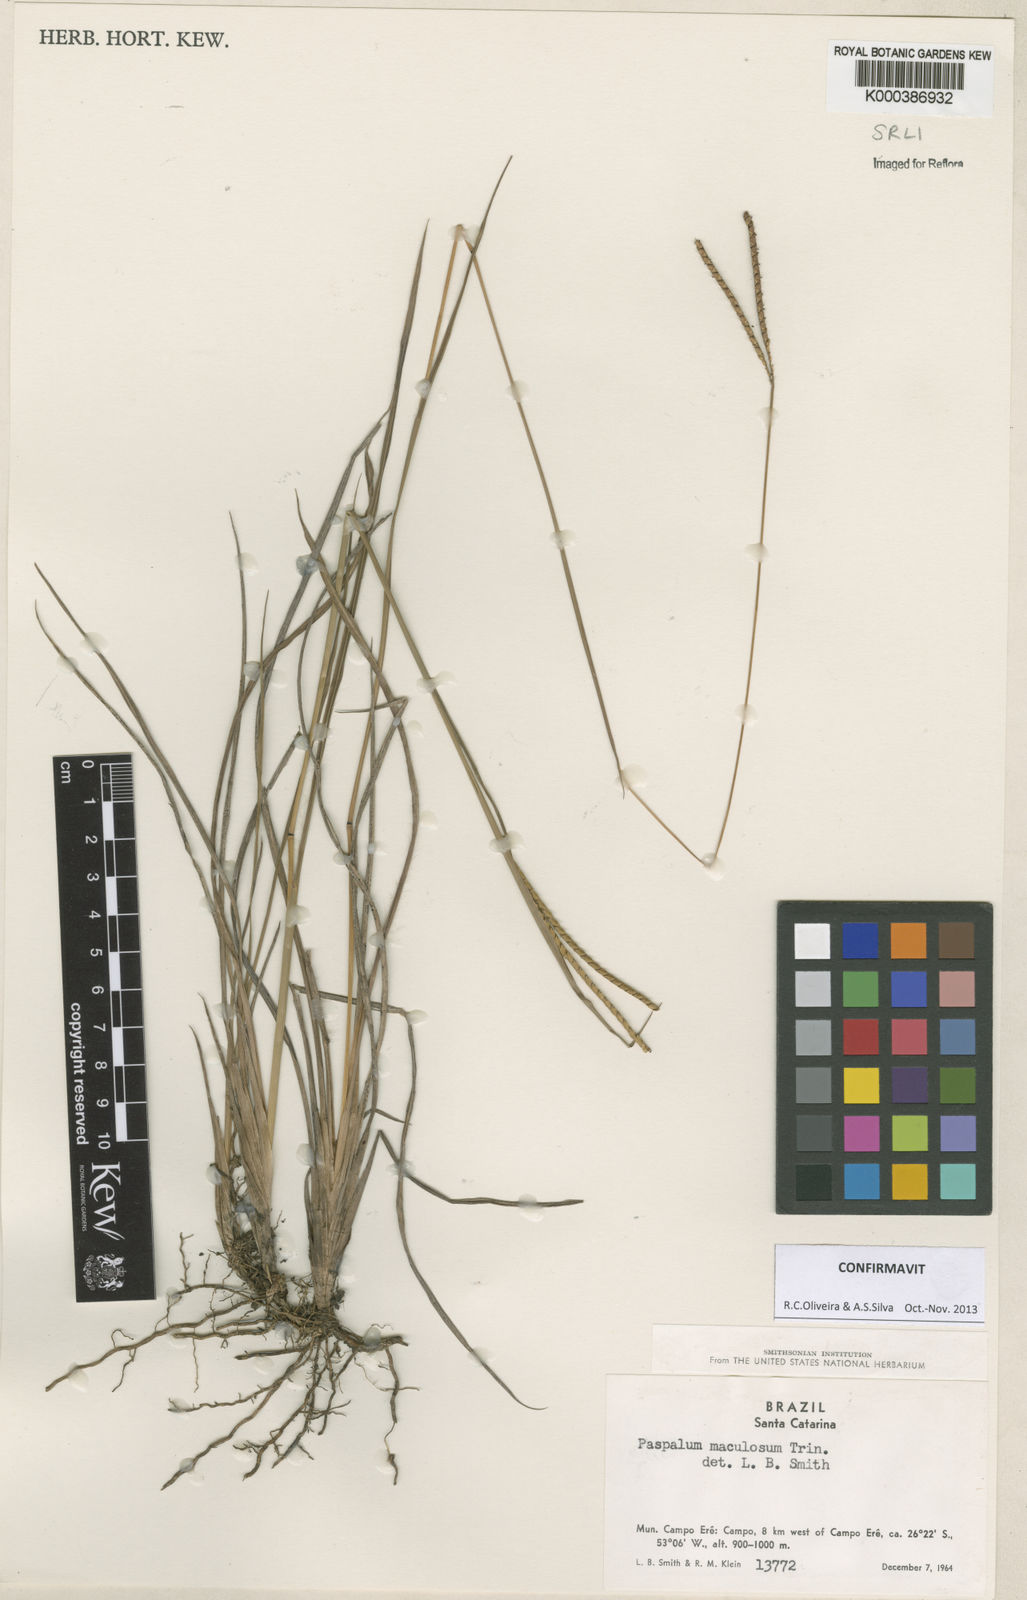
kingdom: Plantae
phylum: Tracheophyta
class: Liliopsida
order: Poales
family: Poaceae
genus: Paspalum
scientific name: Paspalum maculosum
